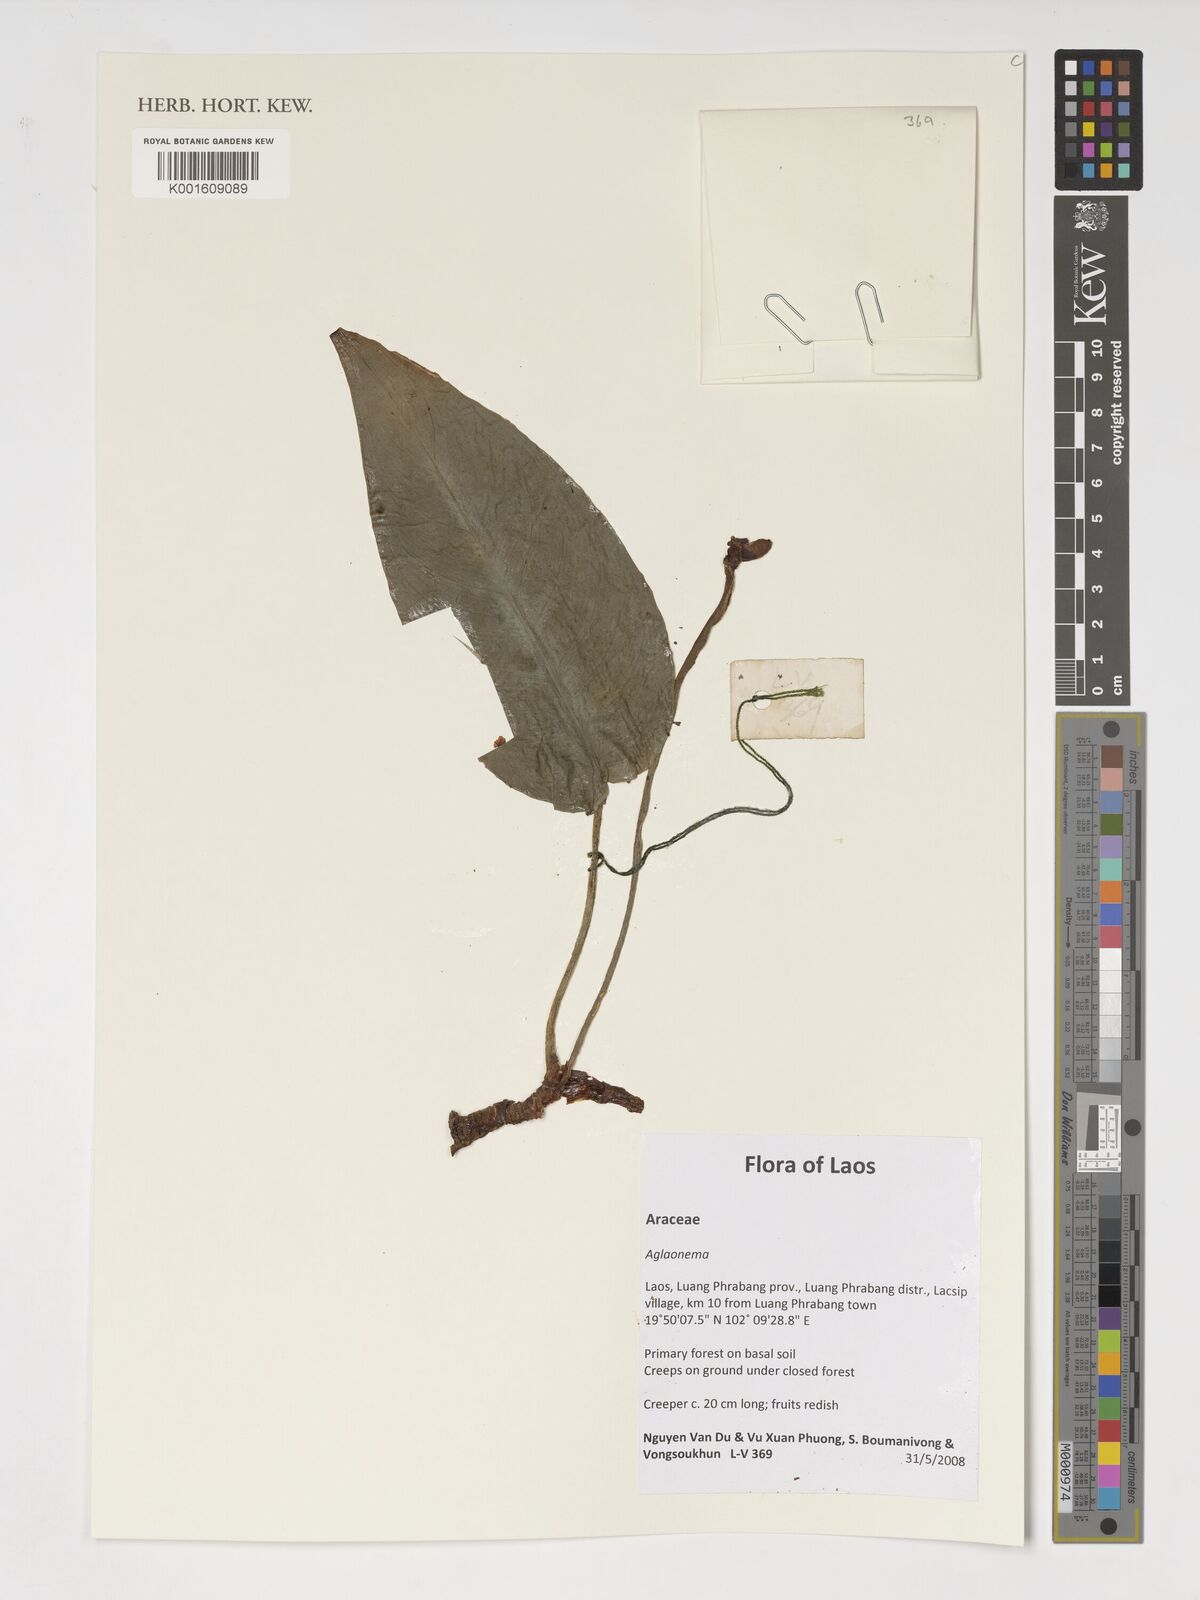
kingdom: Plantae
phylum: Tracheophyta
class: Liliopsida
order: Alismatales
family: Araceae
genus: Aglaonema
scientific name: Aglaonema
